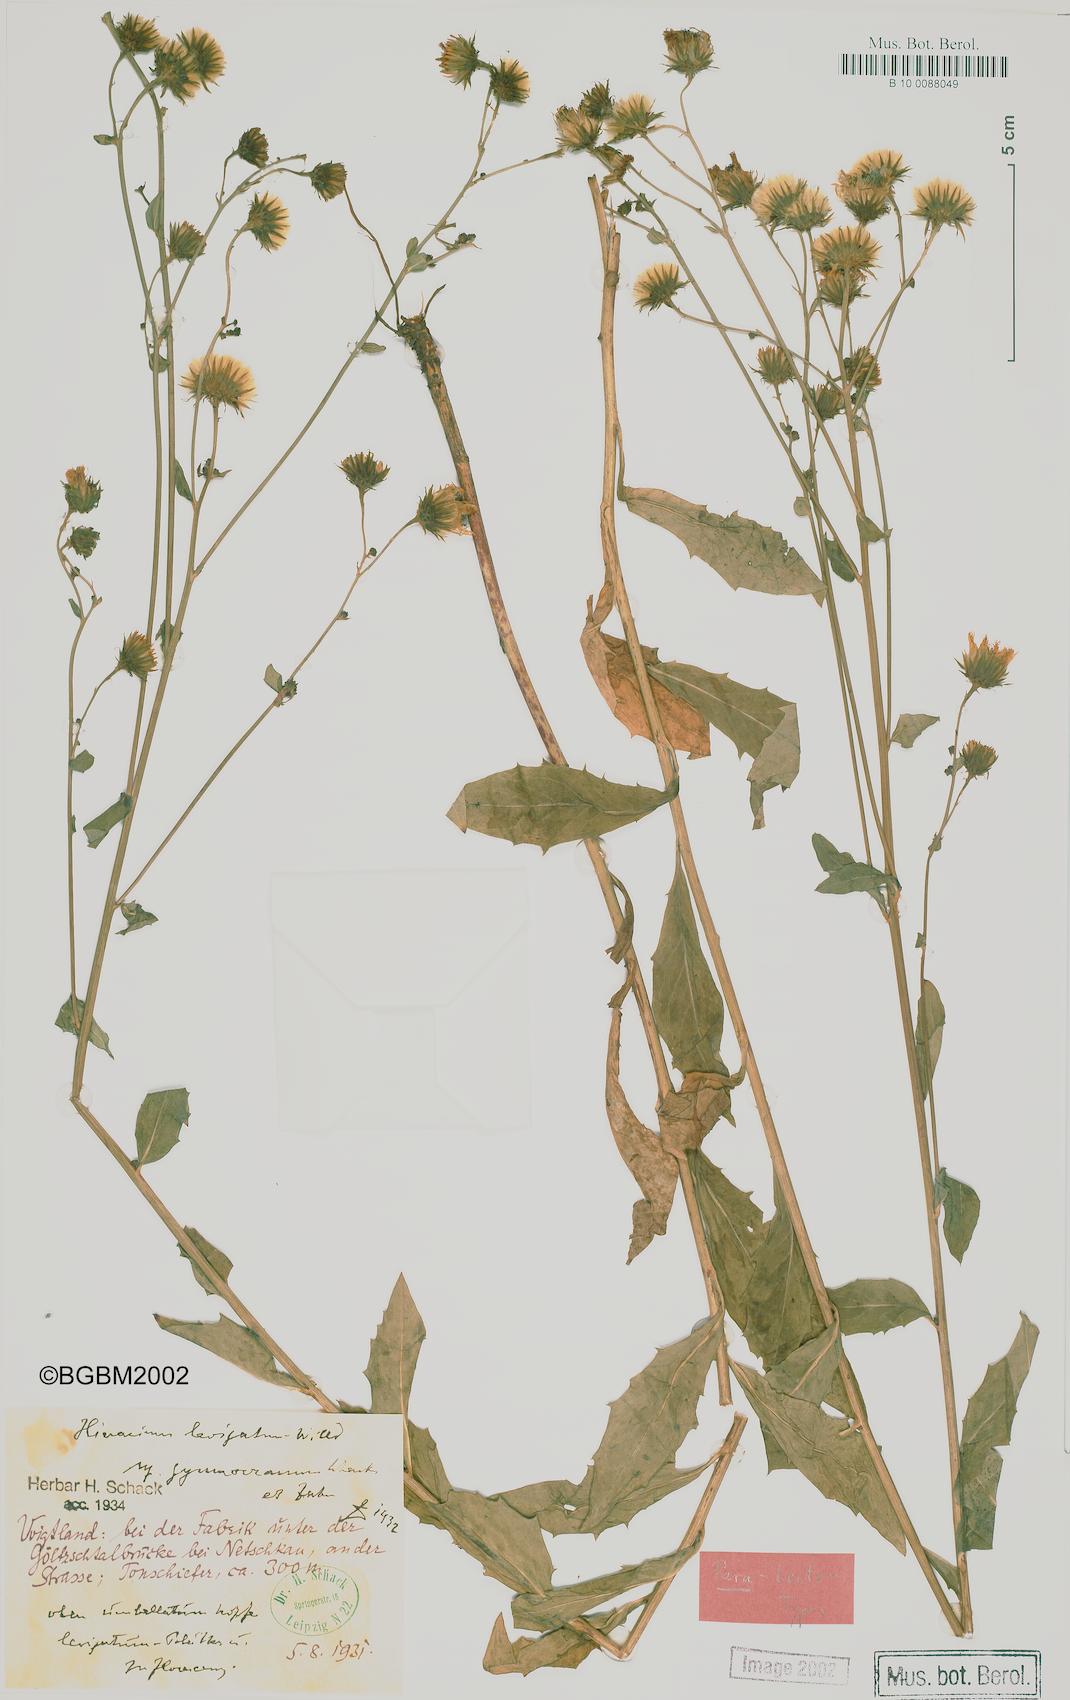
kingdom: Plantae
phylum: Tracheophyta
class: Magnoliopsida
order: Asterales
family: Asteraceae
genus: Hieracium
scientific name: Hieracium laevigatum
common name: Smooth hawkweed
